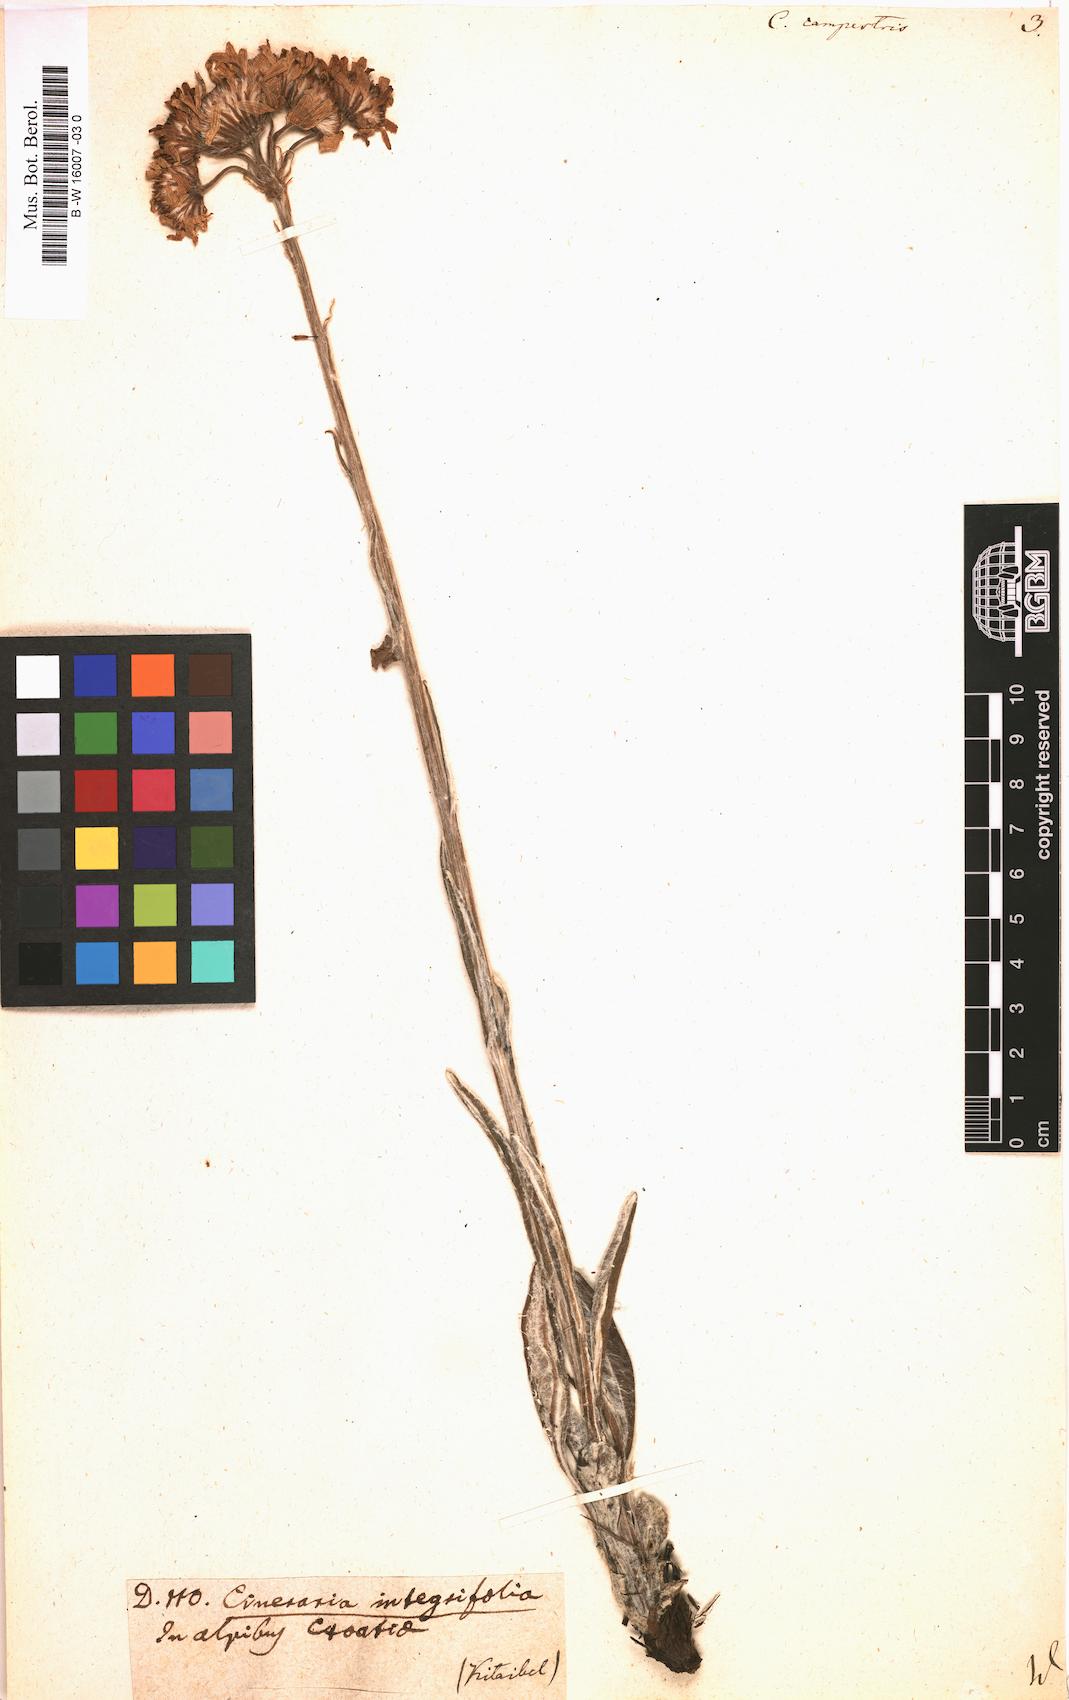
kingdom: Plantae
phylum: Tracheophyta
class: Magnoliopsida
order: Asterales
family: Asteraceae
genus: Tephroseris
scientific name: Tephroseris
